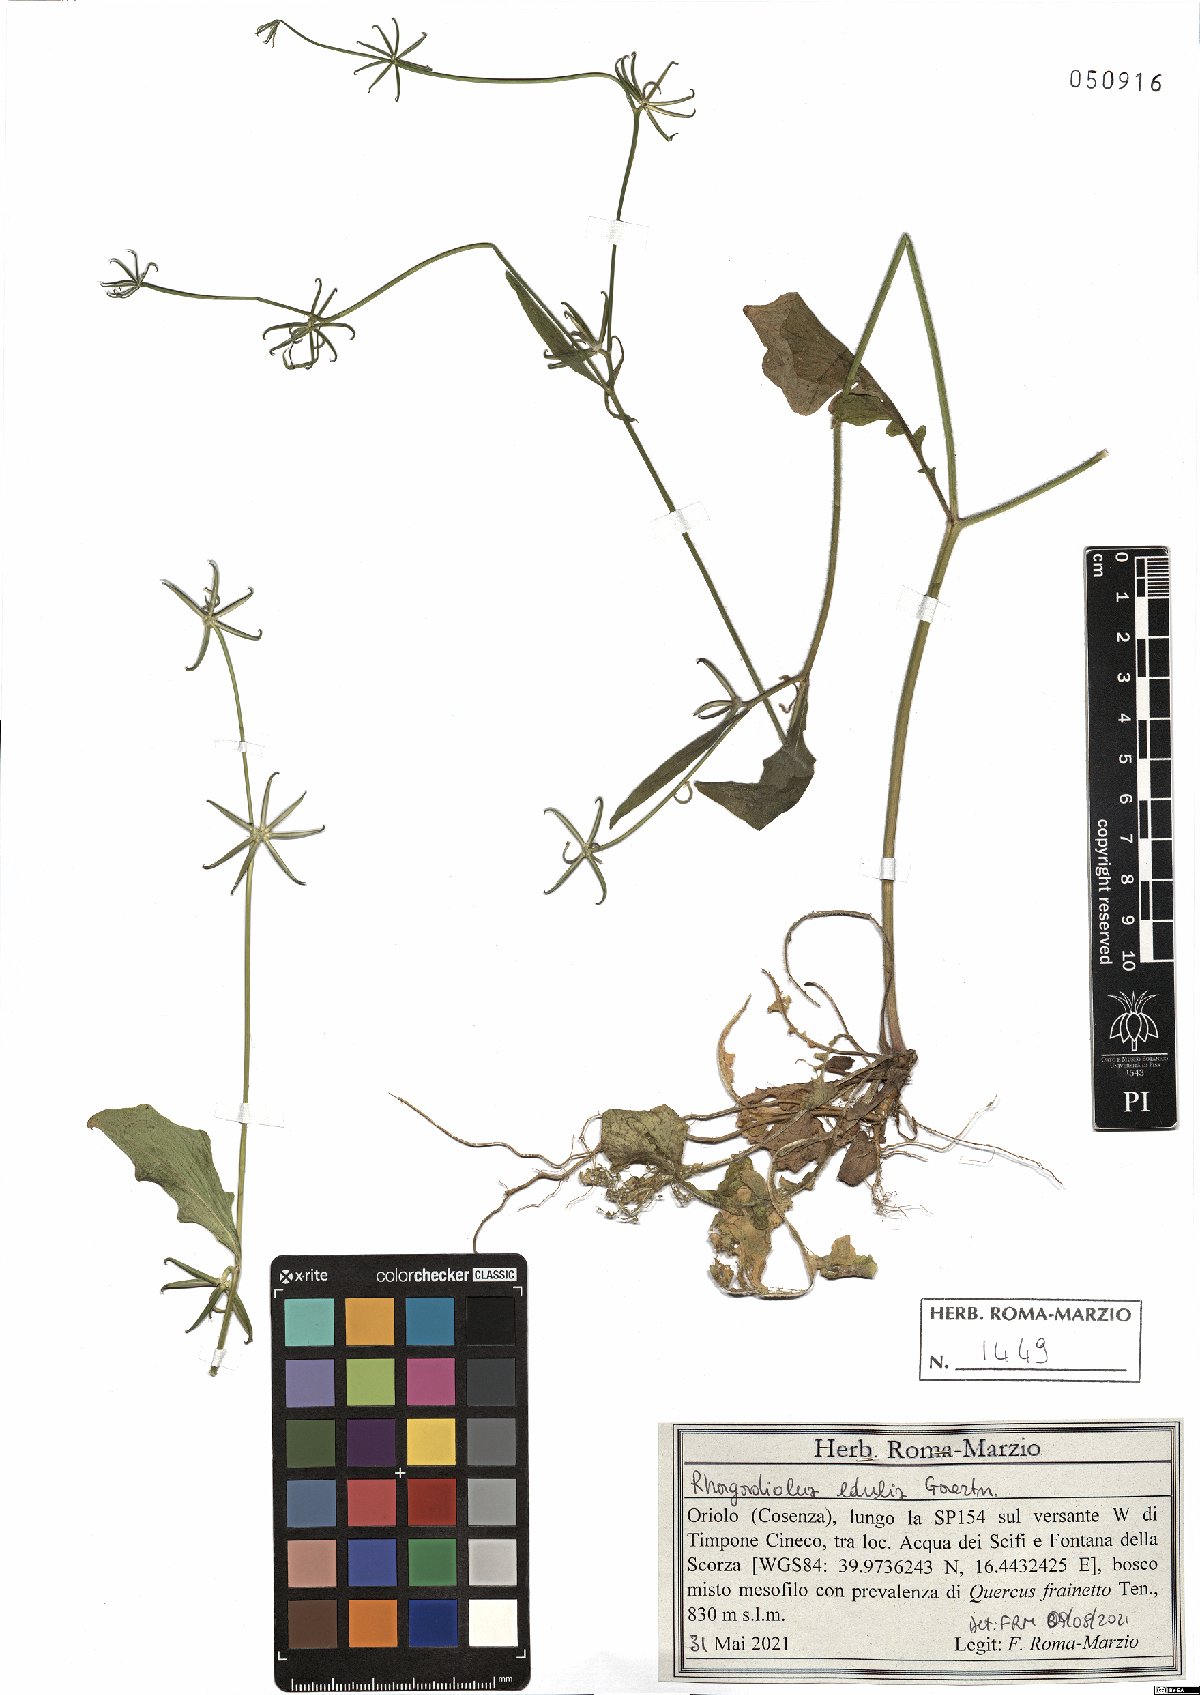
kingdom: Plantae
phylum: Tracheophyta
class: Magnoliopsida
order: Asterales
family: Asteraceae
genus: Rhagadiolus
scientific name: Rhagadiolus edulis
